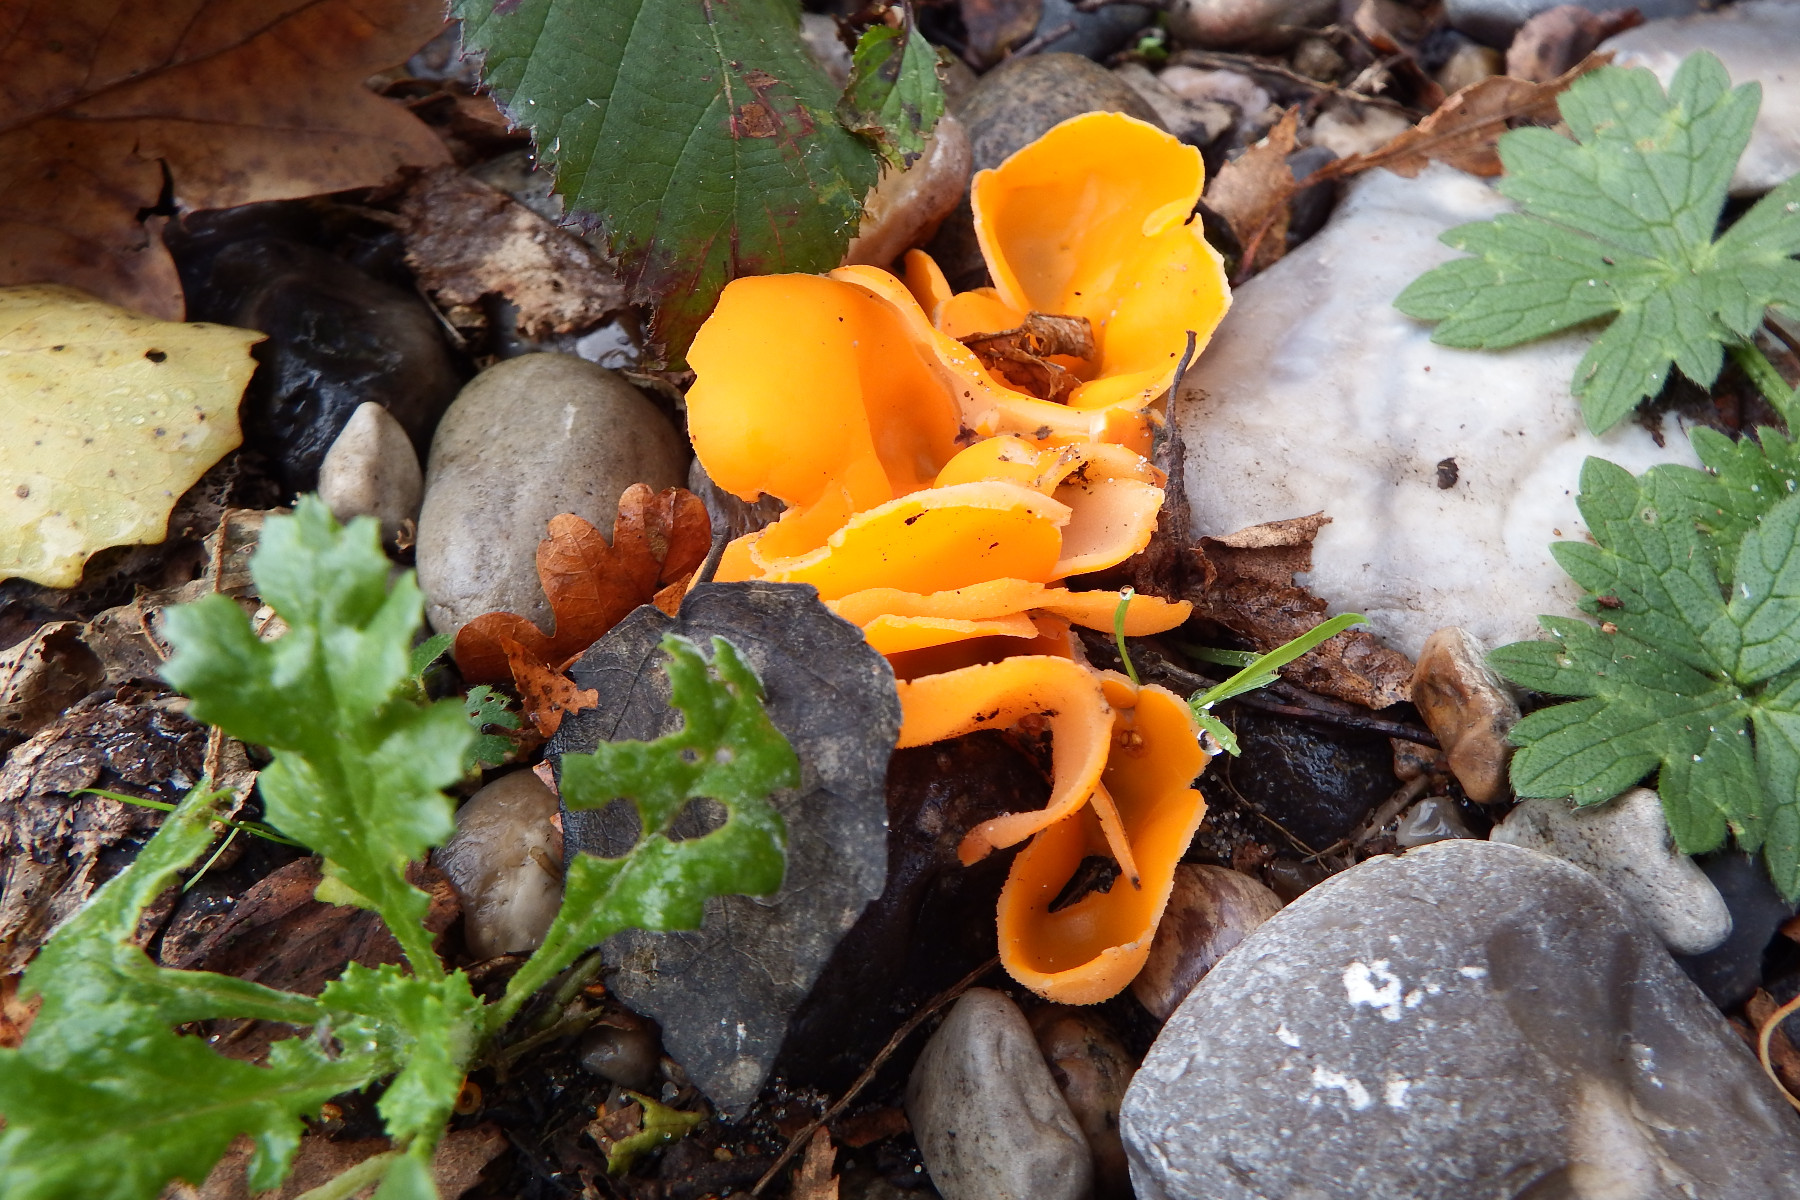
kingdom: Fungi
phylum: Ascomycota
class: Pezizomycetes
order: Pezizales
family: Pyronemataceae
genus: Aleuria
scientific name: Aleuria aurantia
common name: almindelig orangebæger
